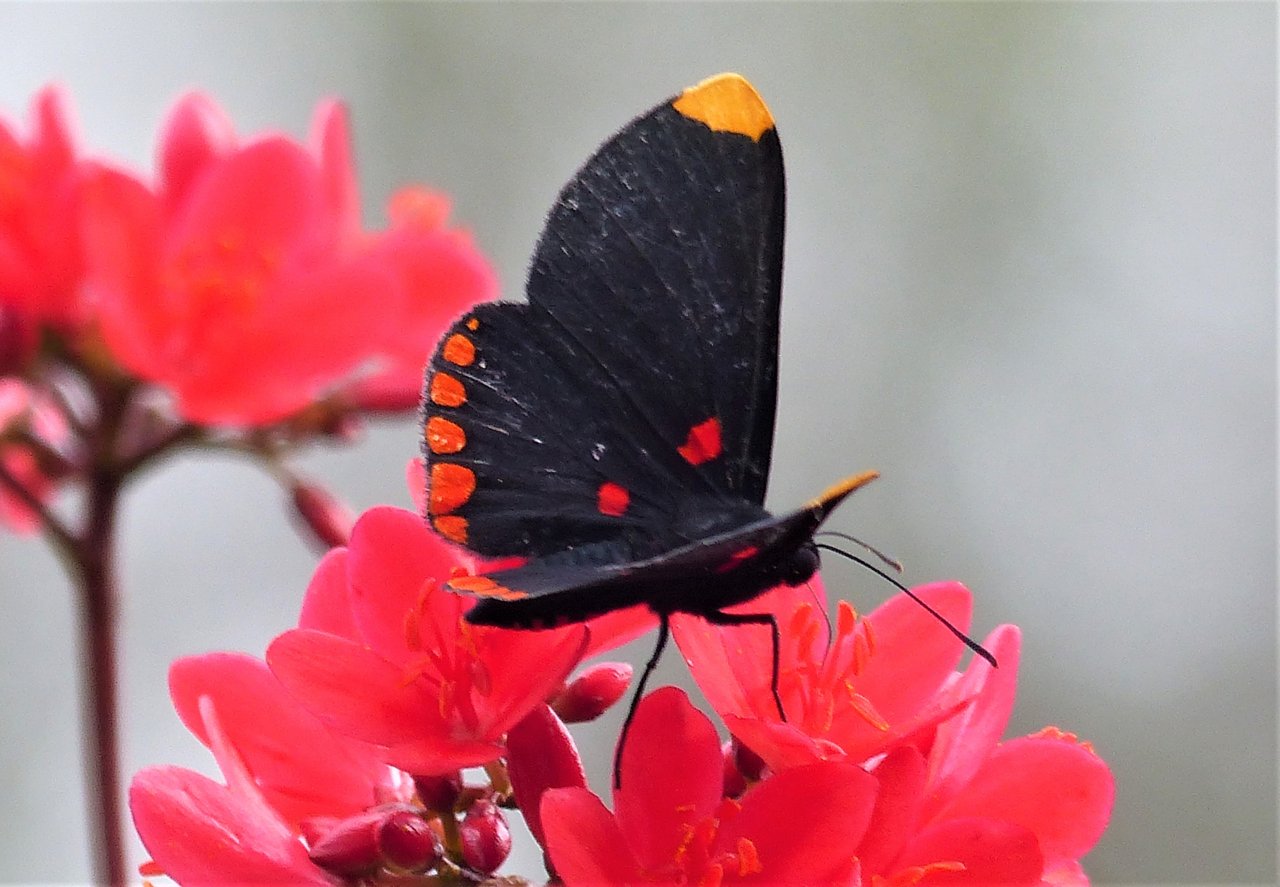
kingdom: Animalia
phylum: Arthropoda
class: Insecta
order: Lepidoptera
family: Lycaenidae
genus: Melanis
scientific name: Melanis pixe
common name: Red-bordered Pixie
